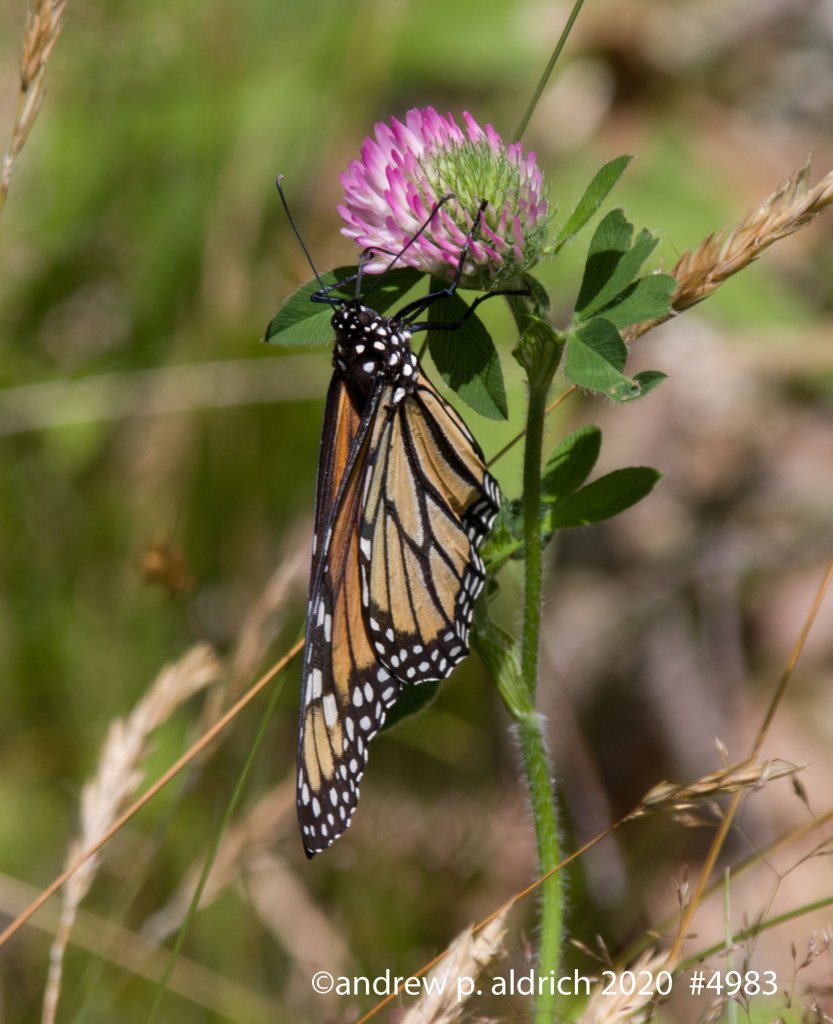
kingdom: Animalia
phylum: Arthropoda
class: Insecta
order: Lepidoptera
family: Nymphalidae
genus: Danaus
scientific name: Danaus plexippus
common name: Monarch
